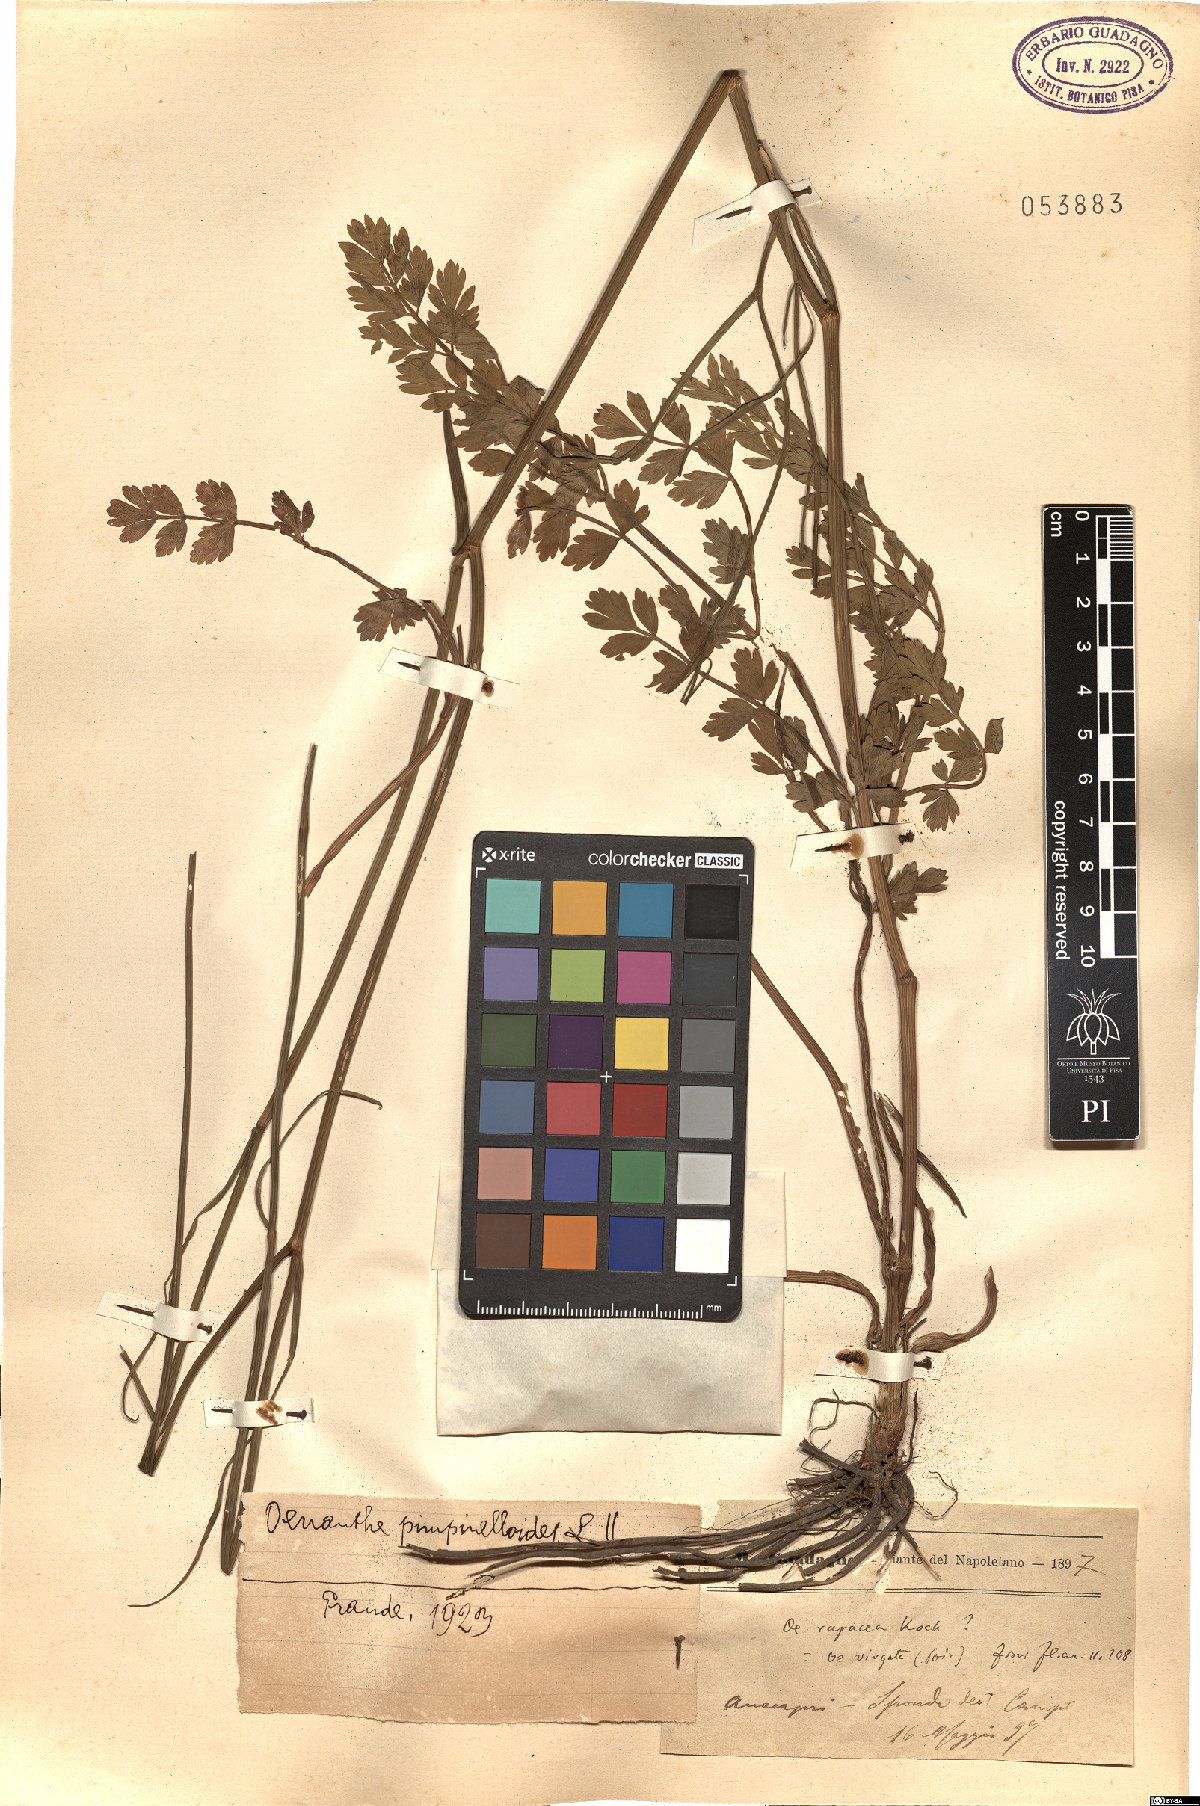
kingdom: Plantae
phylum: Tracheophyta
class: Magnoliopsida
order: Apiales
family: Apiaceae
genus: Oenanthe
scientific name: Oenanthe pimpinelloides
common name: Corky-fruited water-dropwort
